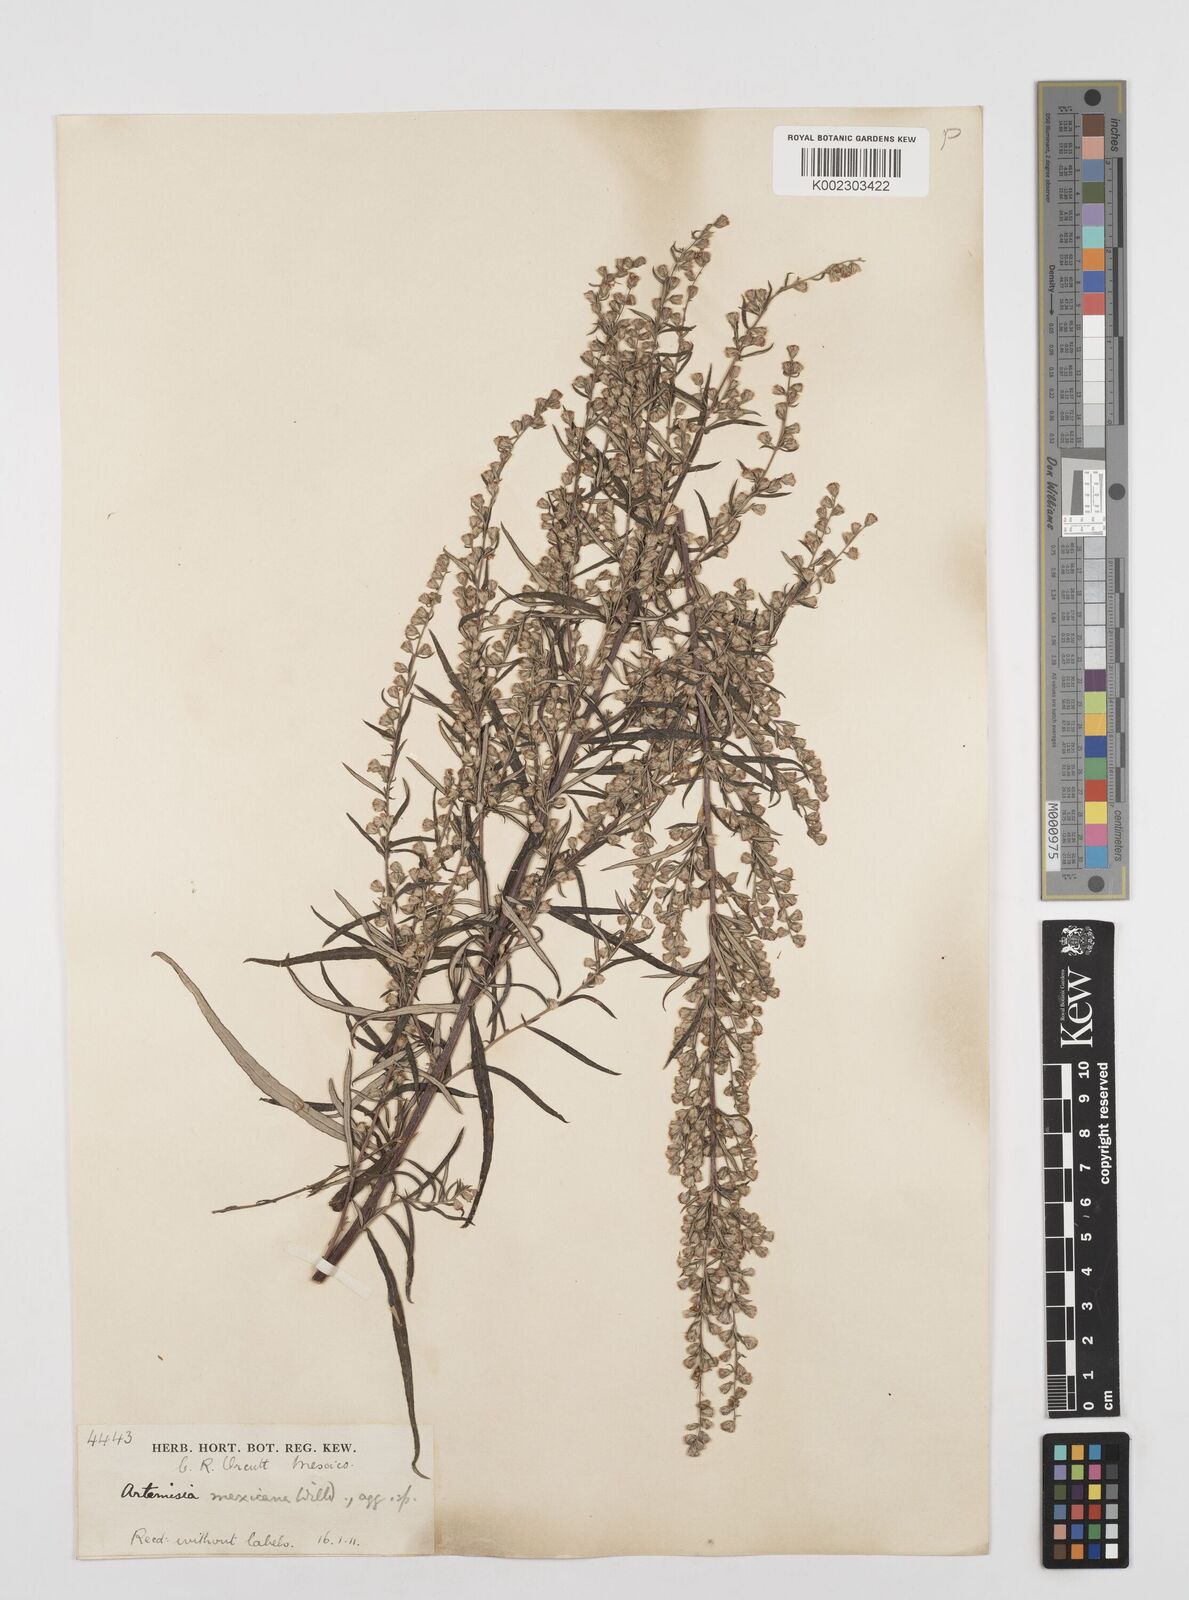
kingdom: Plantae
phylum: Tracheophyta
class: Magnoliopsida
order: Asterales
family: Asteraceae
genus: Artemisia
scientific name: Artemisia ludoviciana
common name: Western mugwort
